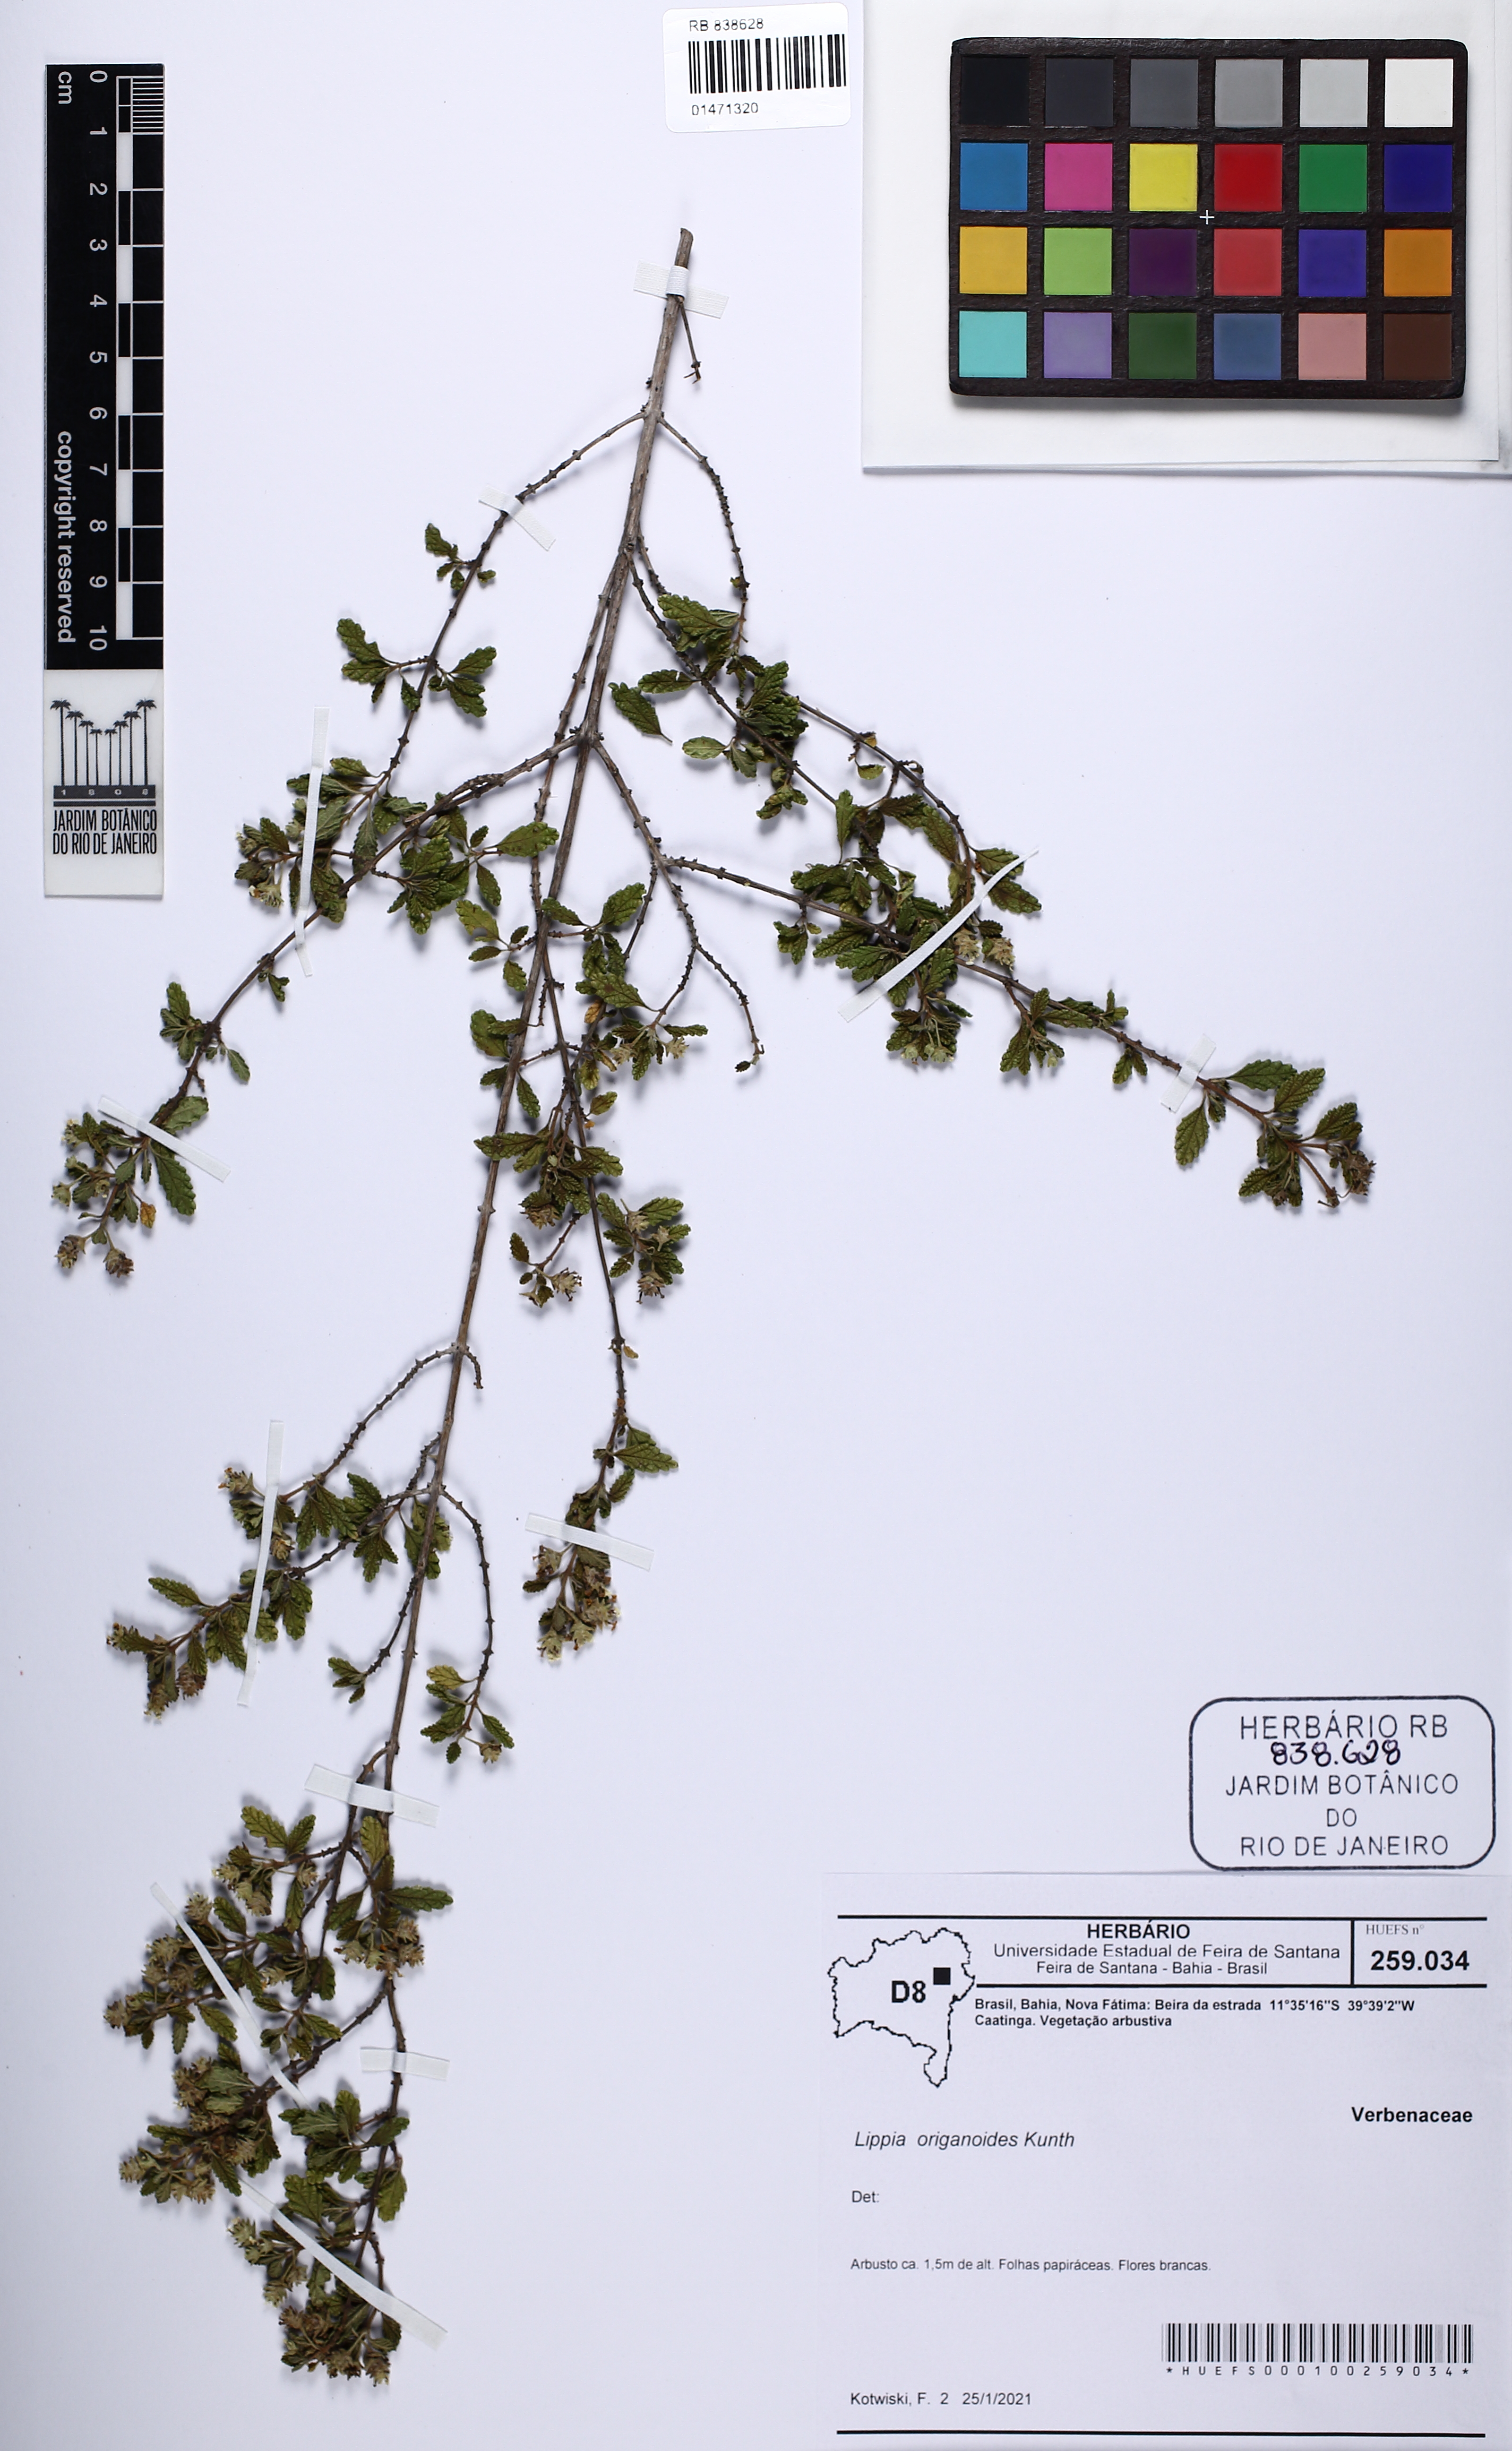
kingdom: Plantae
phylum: Tracheophyta
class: Magnoliopsida
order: Lamiales
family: Verbenaceae
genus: Lippia
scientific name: Lippia origanoides
